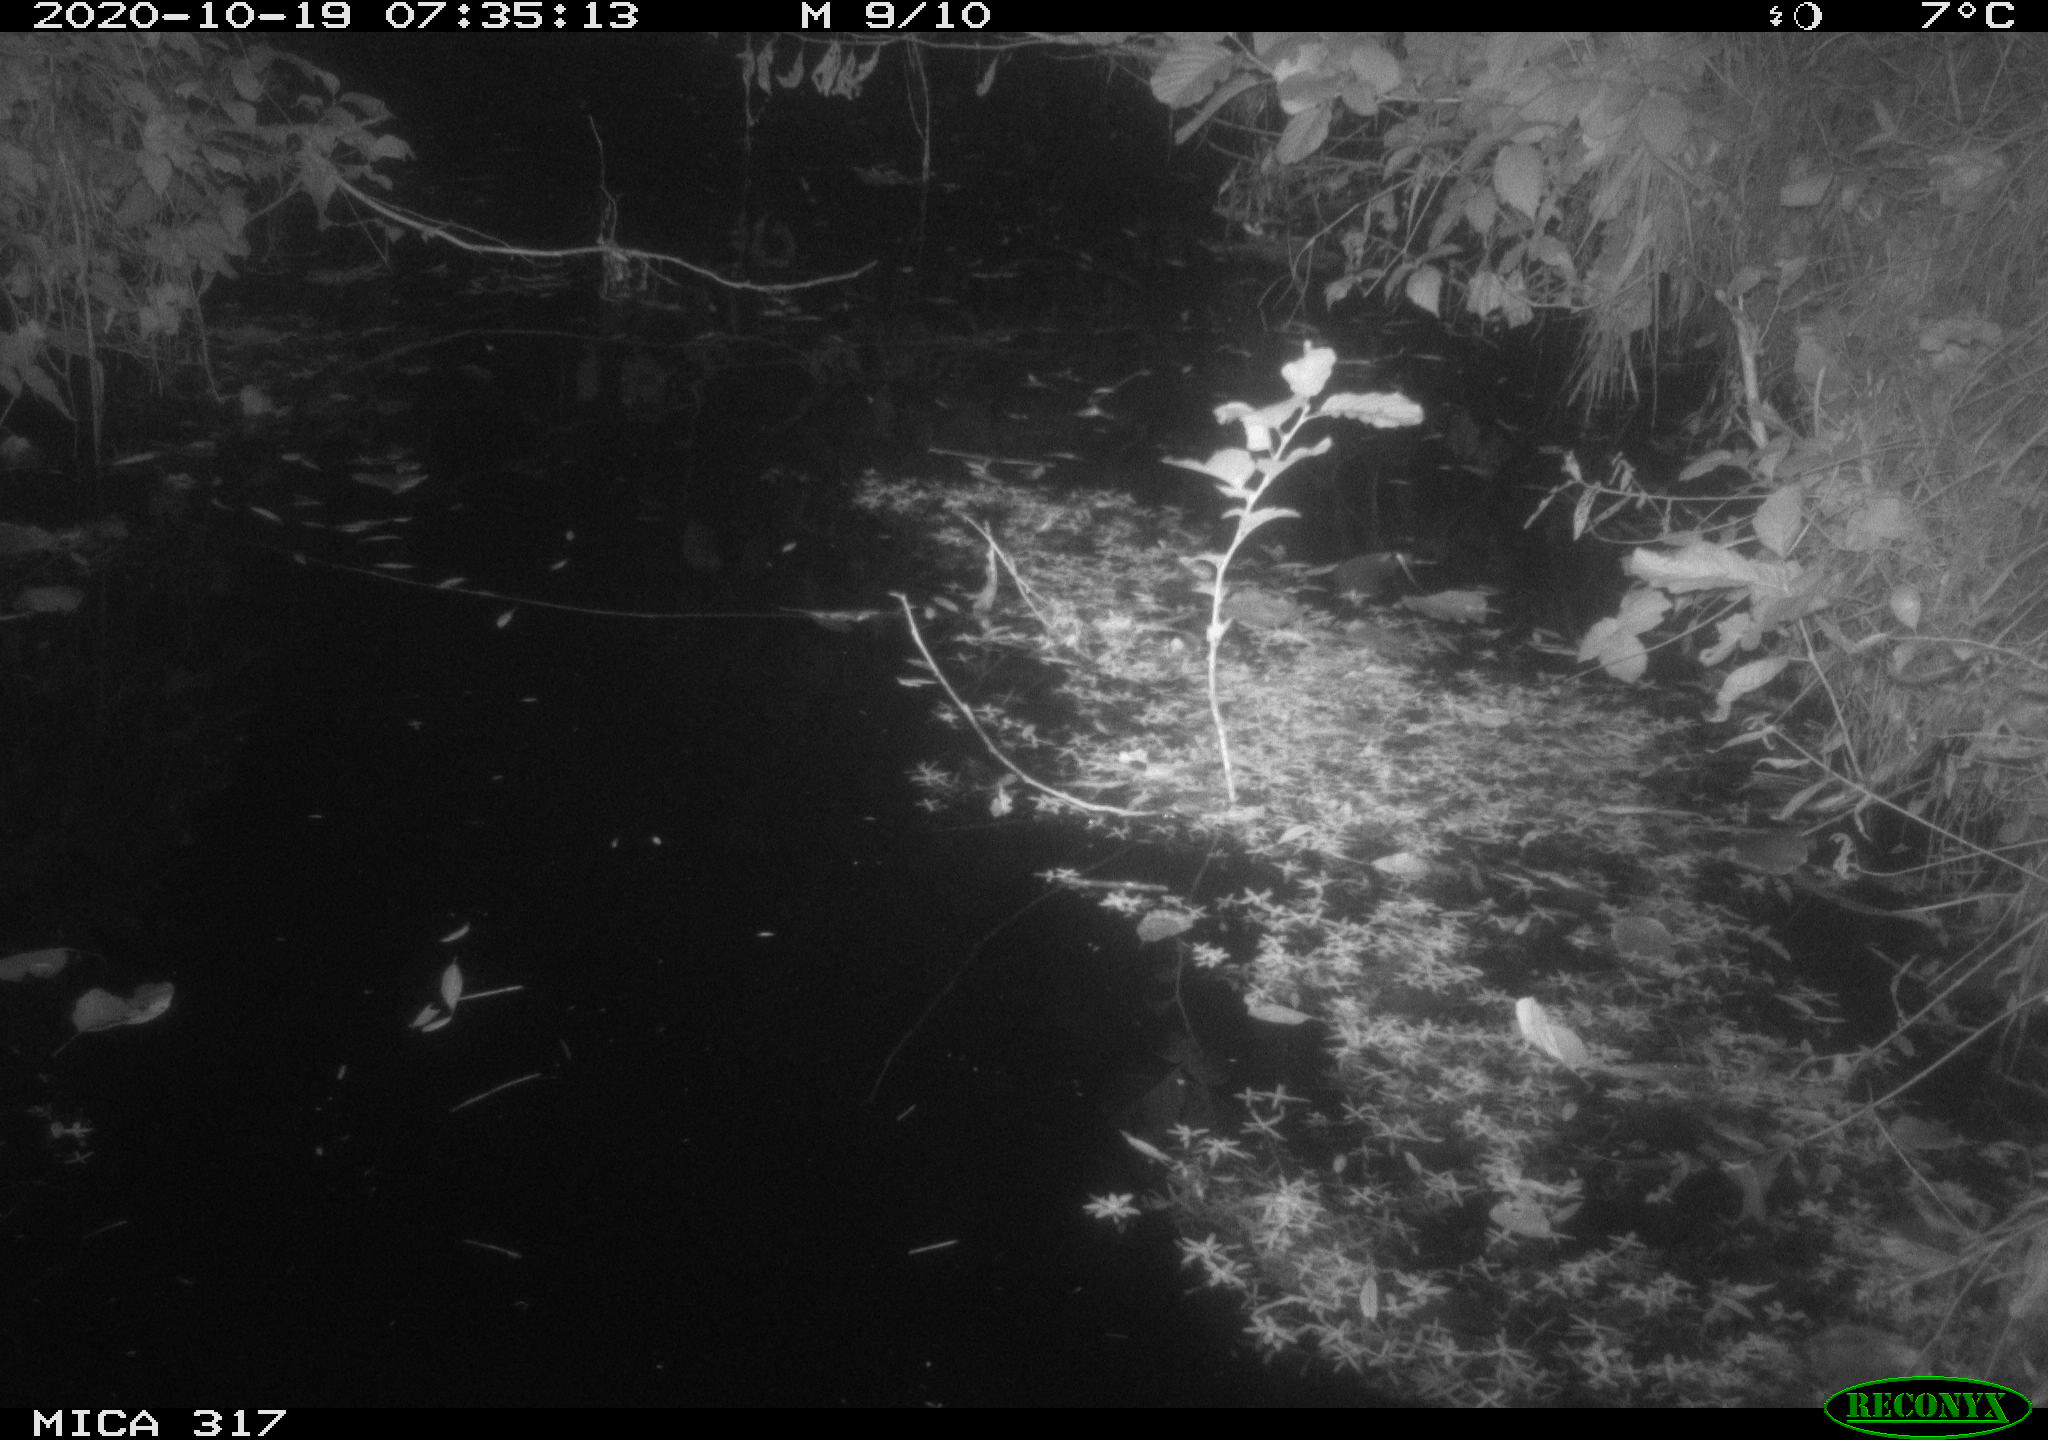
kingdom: Animalia
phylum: Chordata
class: Aves
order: Anseriformes
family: Anatidae
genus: Anas
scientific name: Anas platyrhynchos
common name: Mallard
